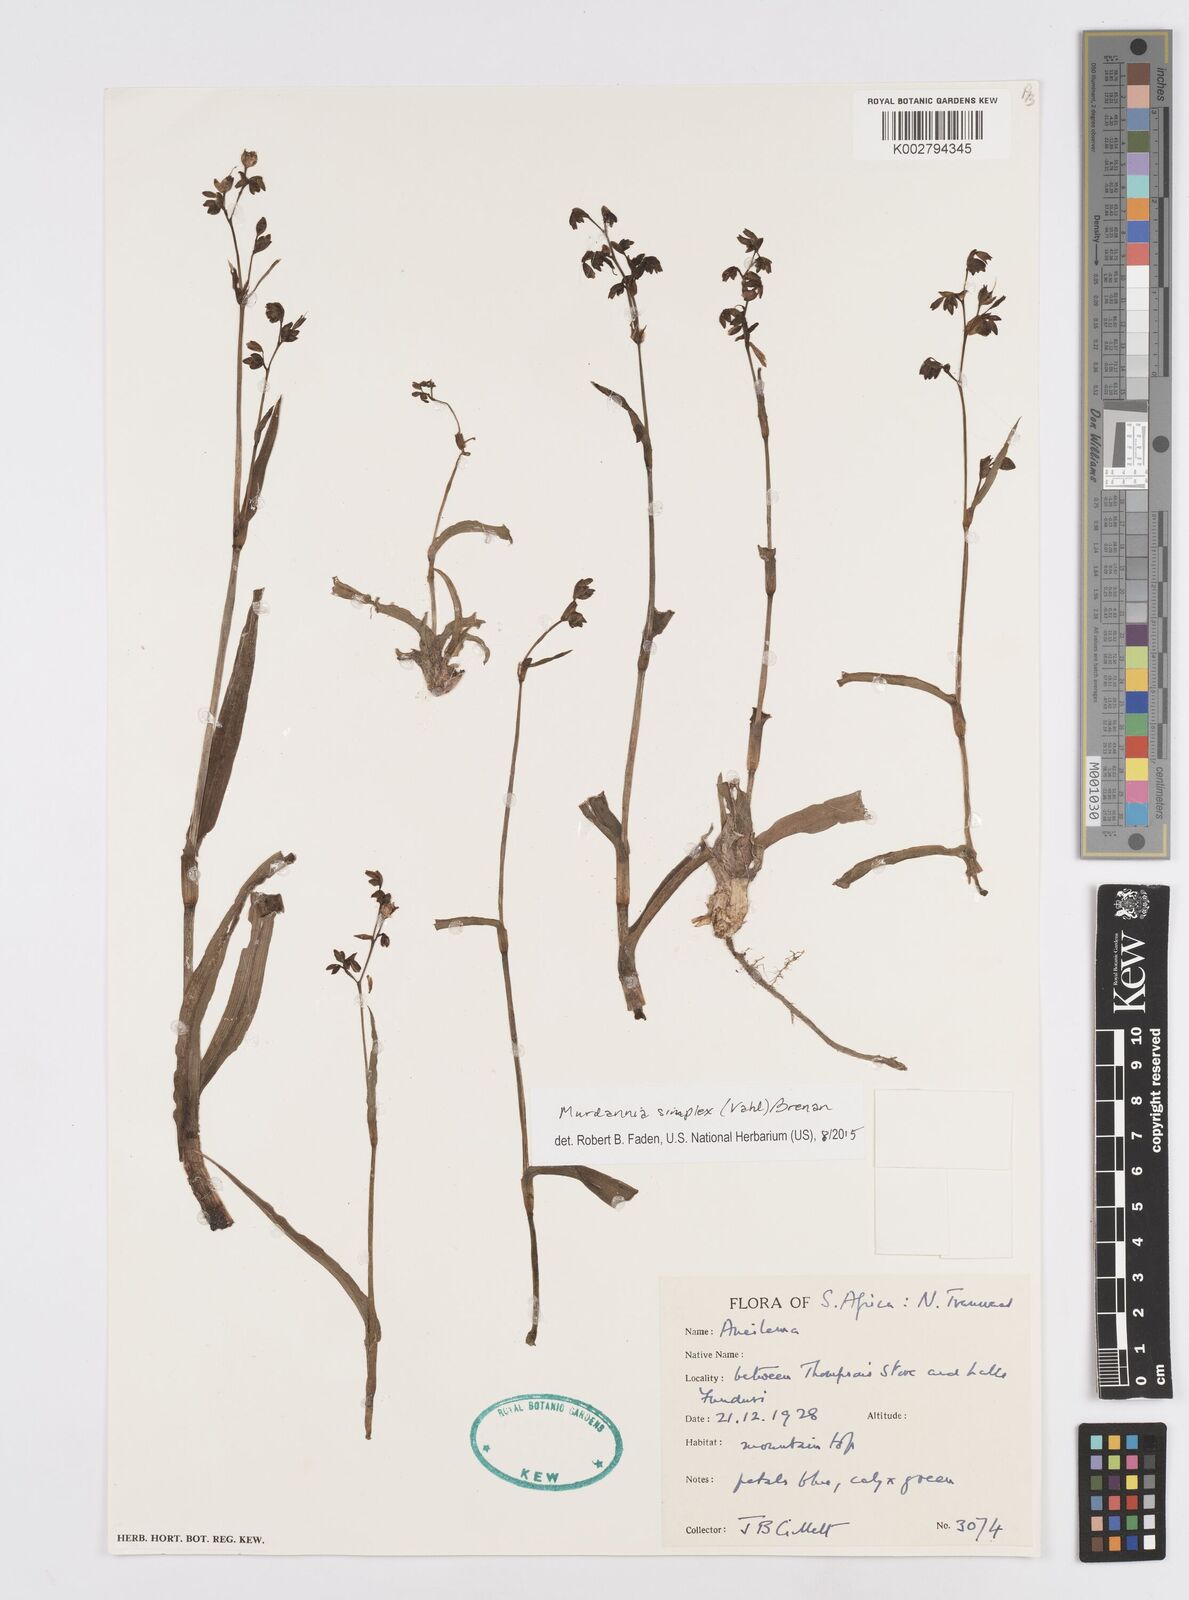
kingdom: Plantae
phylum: Tracheophyta
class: Liliopsida
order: Commelinales
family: Commelinaceae
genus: Murdannia
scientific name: Murdannia simplex
